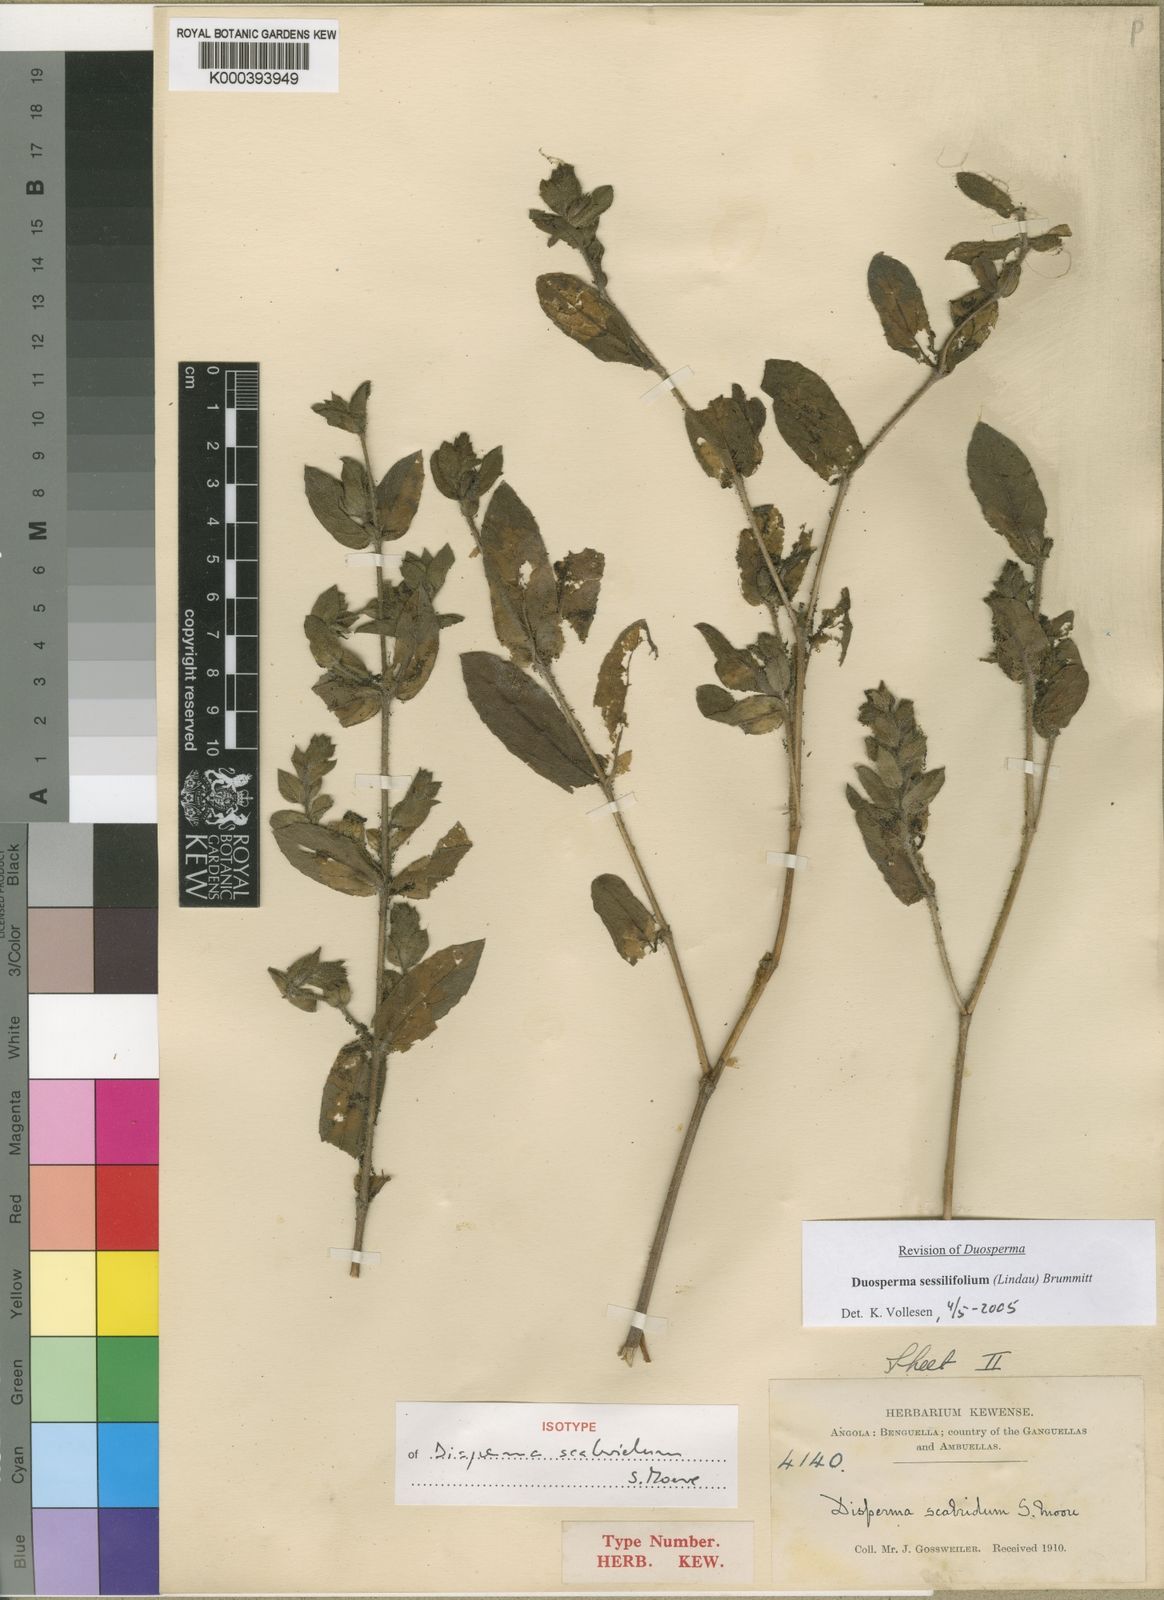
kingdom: Plantae
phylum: Tracheophyta
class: Magnoliopsida
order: Lamiales
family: Acanthaceae
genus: Duosperma
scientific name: Duosperma sessilifolium
